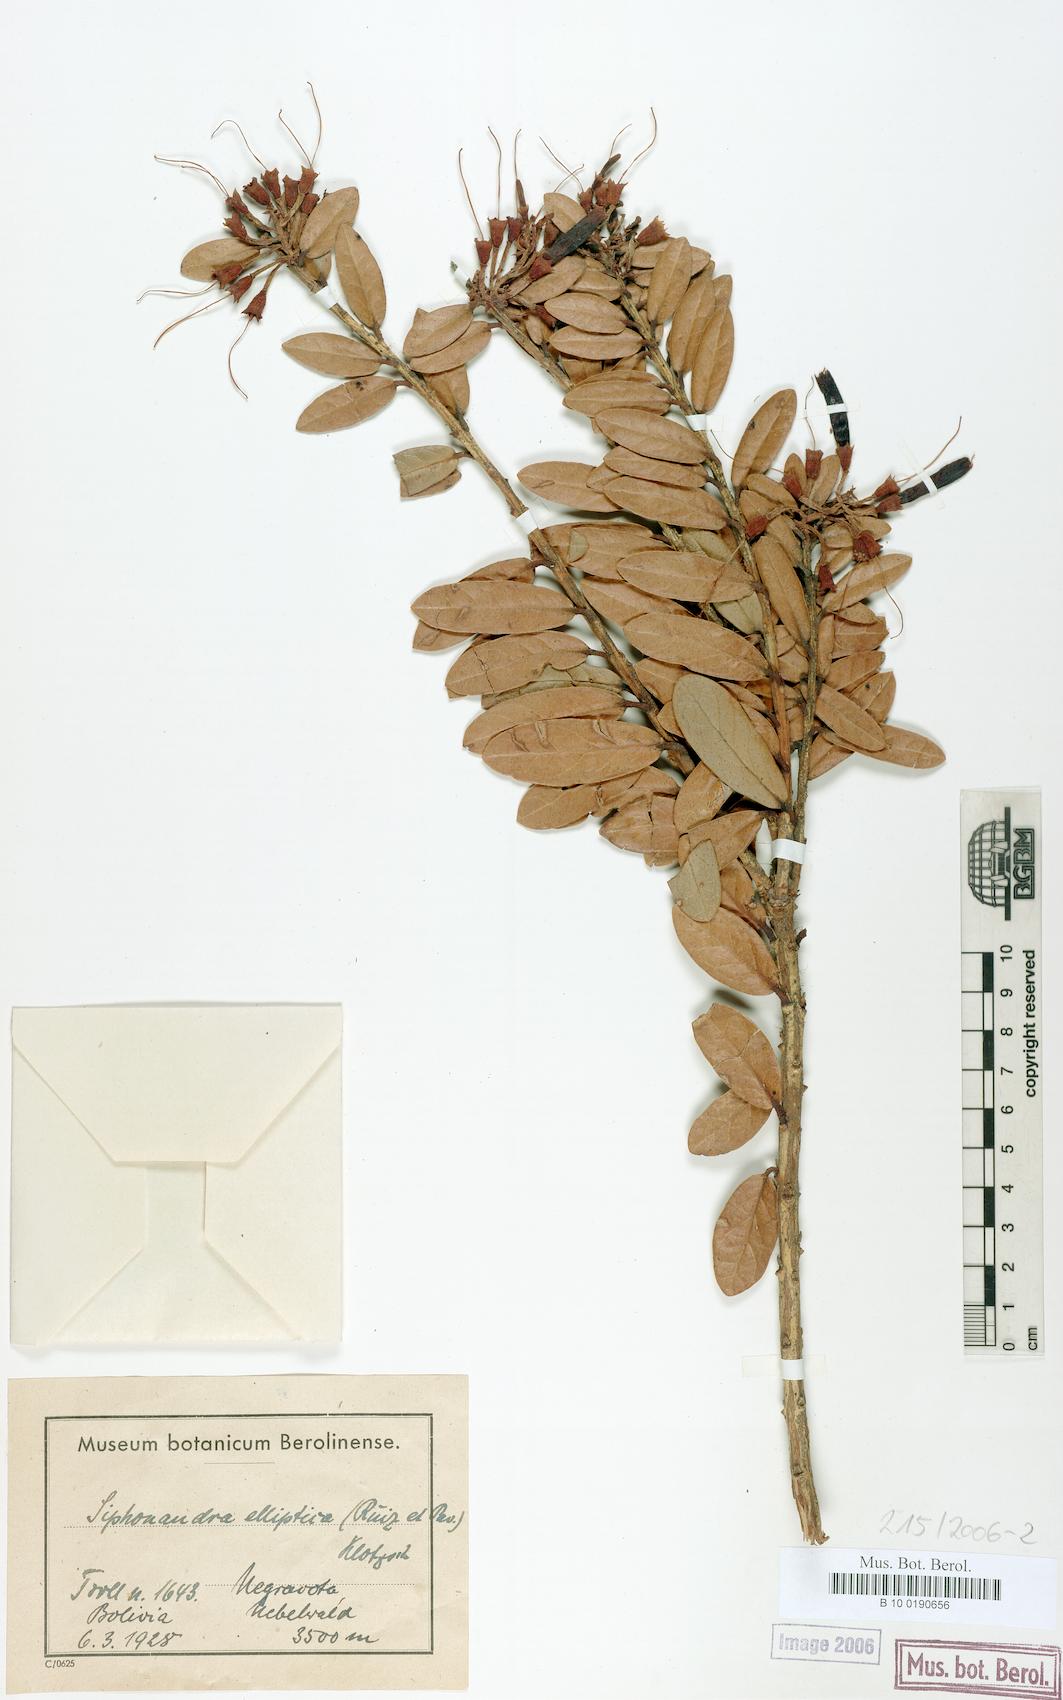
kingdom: Plantae
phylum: Tracheophyta
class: Magnoliopsida
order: Ericales
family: Ericaceae
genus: Siphonandra
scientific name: Siphonandra elliptica
